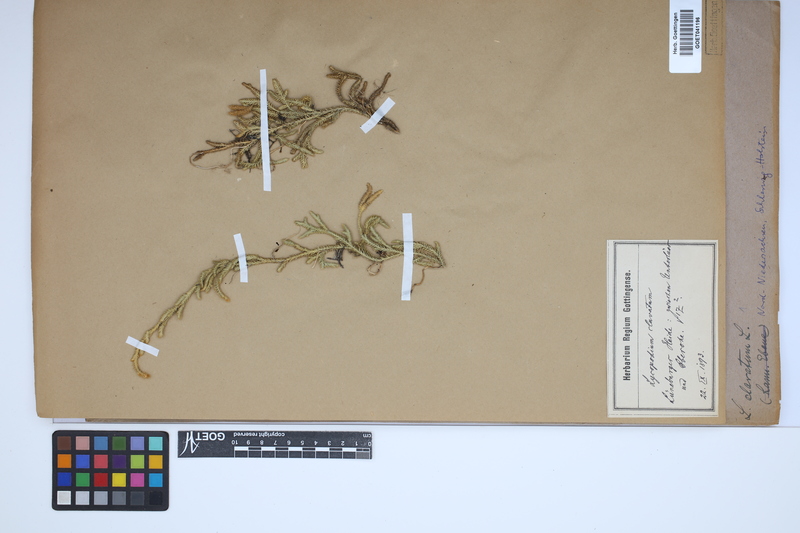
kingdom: Plantae
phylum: Tracheophyta
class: Lycopodiopsida
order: Lycopodiales
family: Lycopodiaceae
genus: Lycopodium
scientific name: Lycopodium clavatum
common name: Stag's-horn clubmoss
